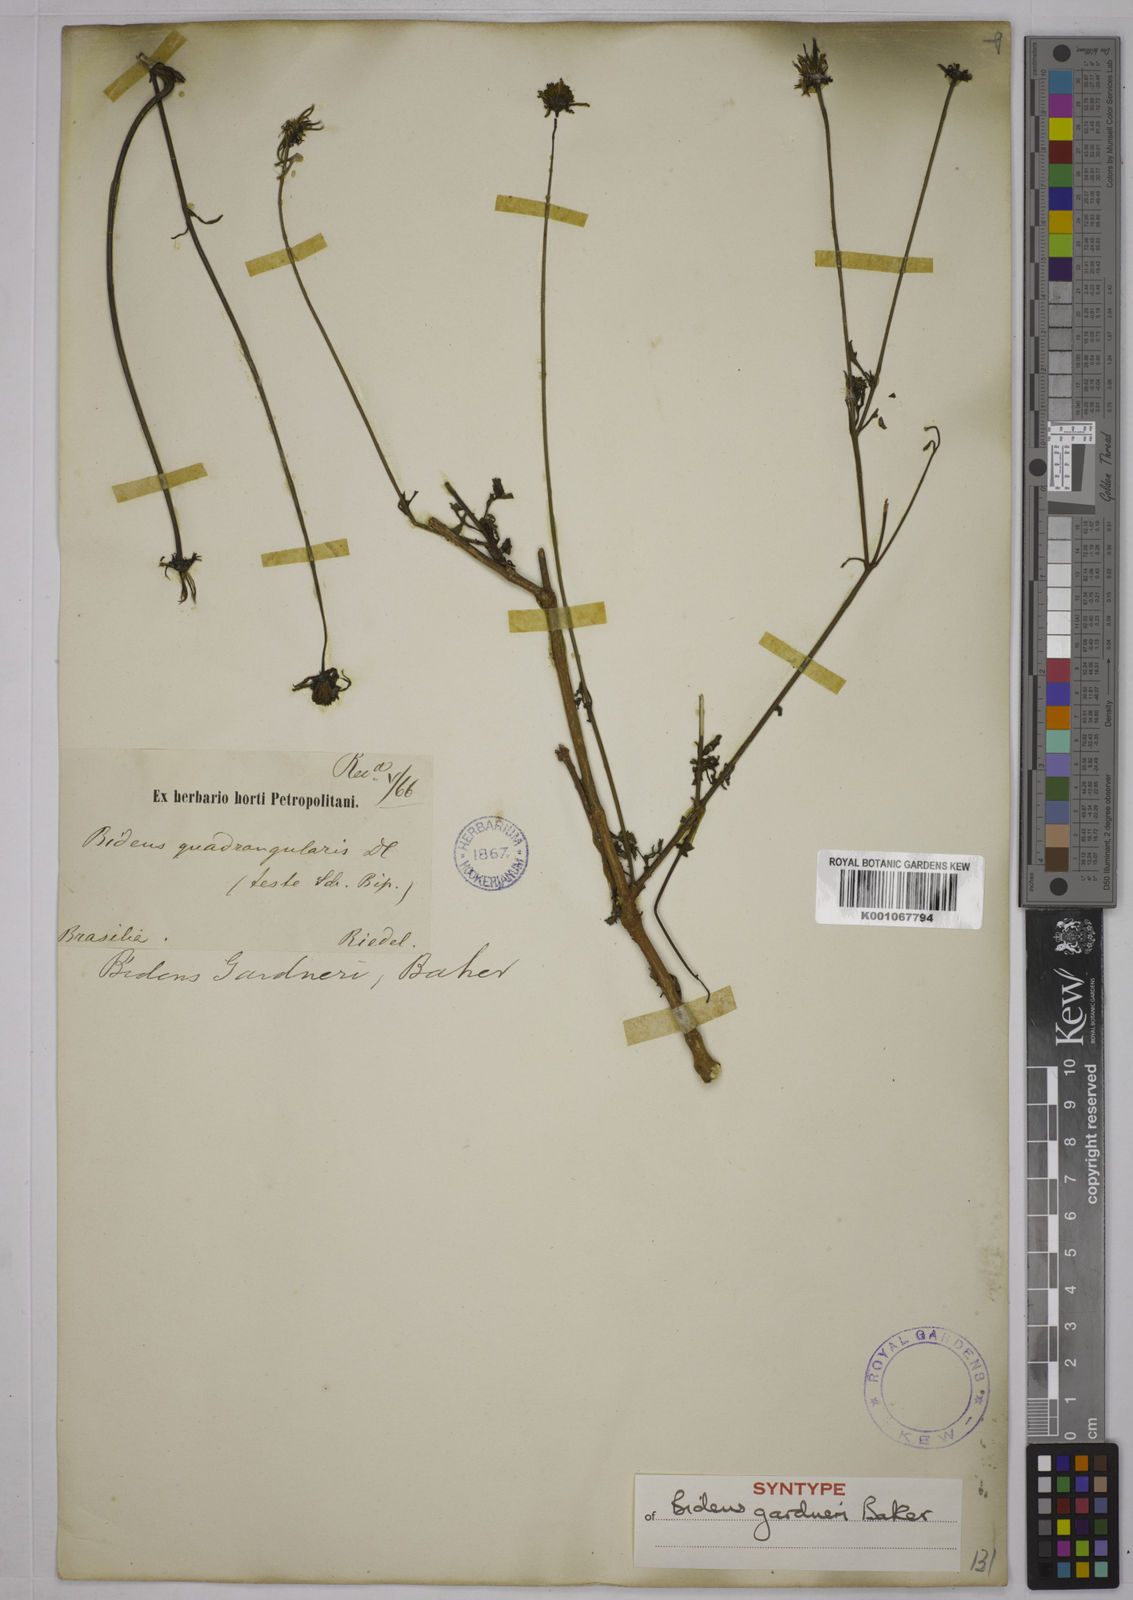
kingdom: Plantae
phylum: Tracheophyta
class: Magnoliopsida
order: Asterales
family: Asteraceae
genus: Bidens
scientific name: Bidens gardneri
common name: Ridge beggartick
